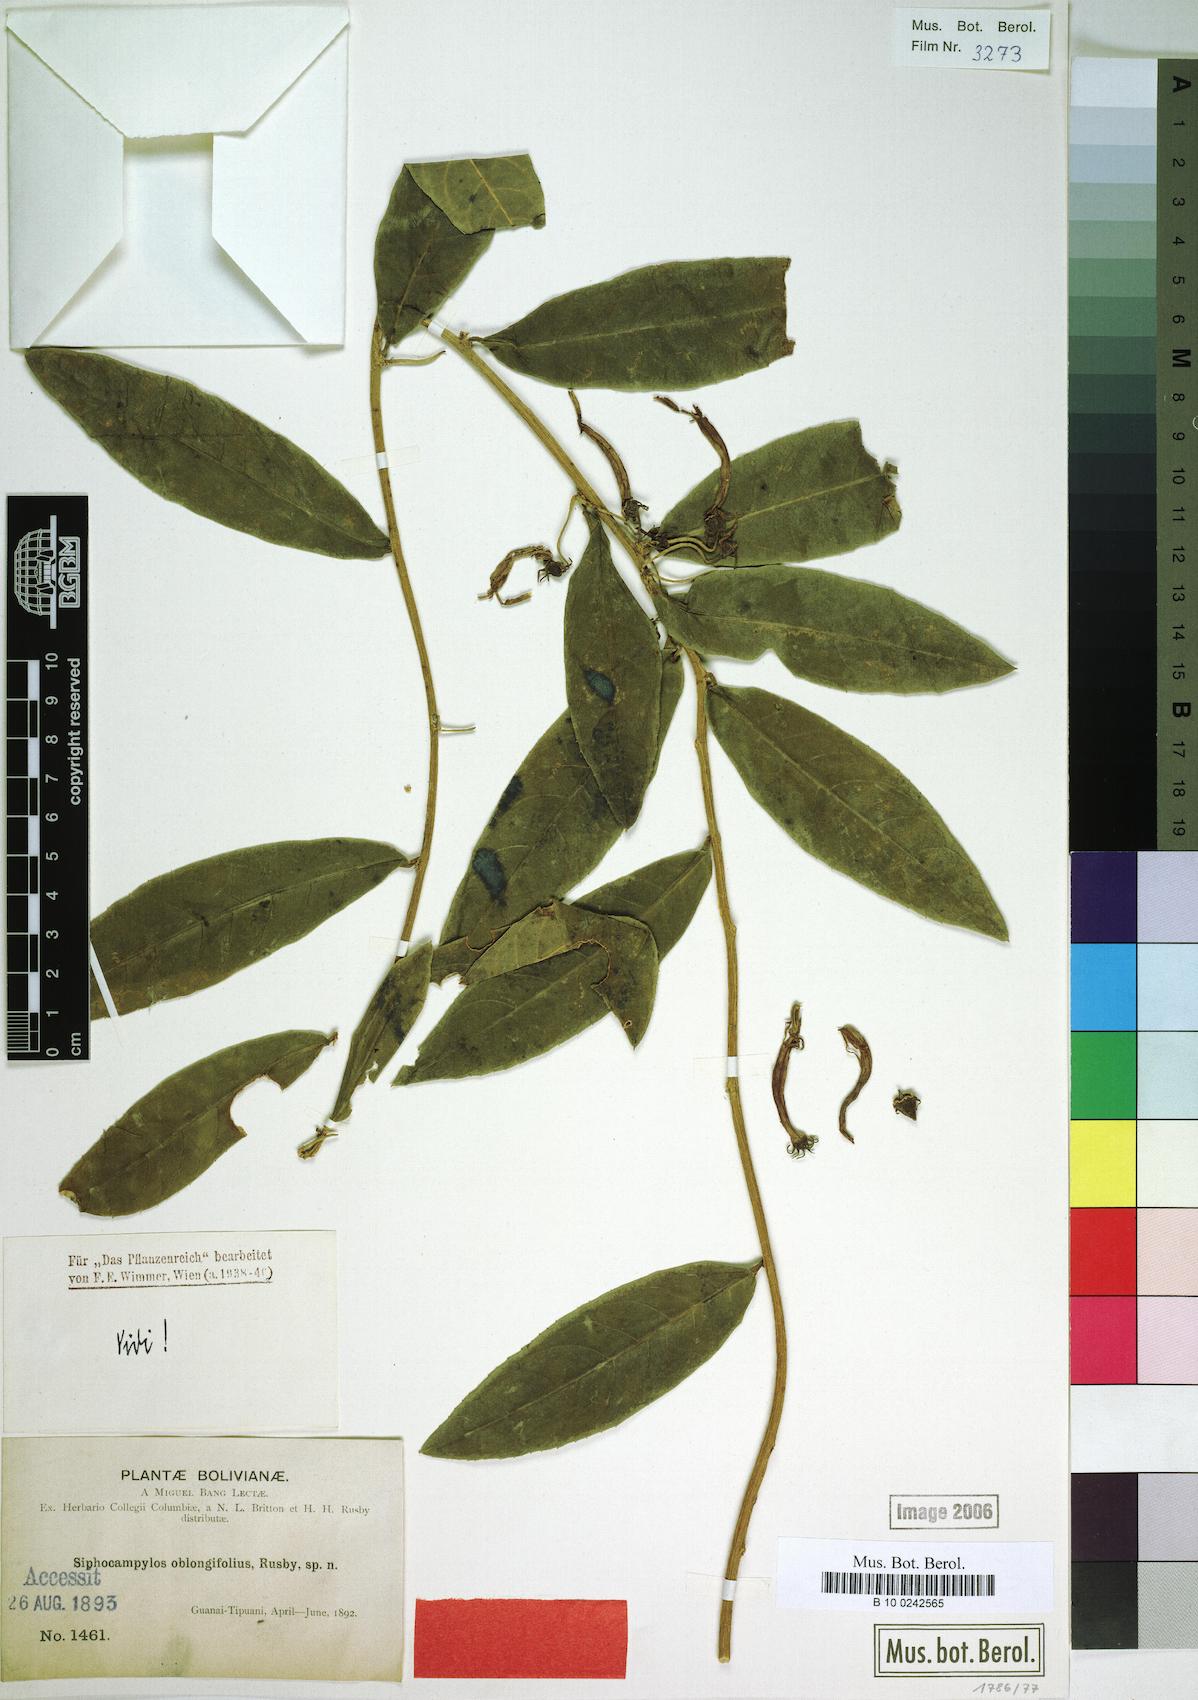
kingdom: Plantae
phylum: Tracheophyta
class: Magnoliopsida
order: Asterales
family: Campanulaceae
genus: Siphocampylus
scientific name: Siphocampylus oblongifolius
